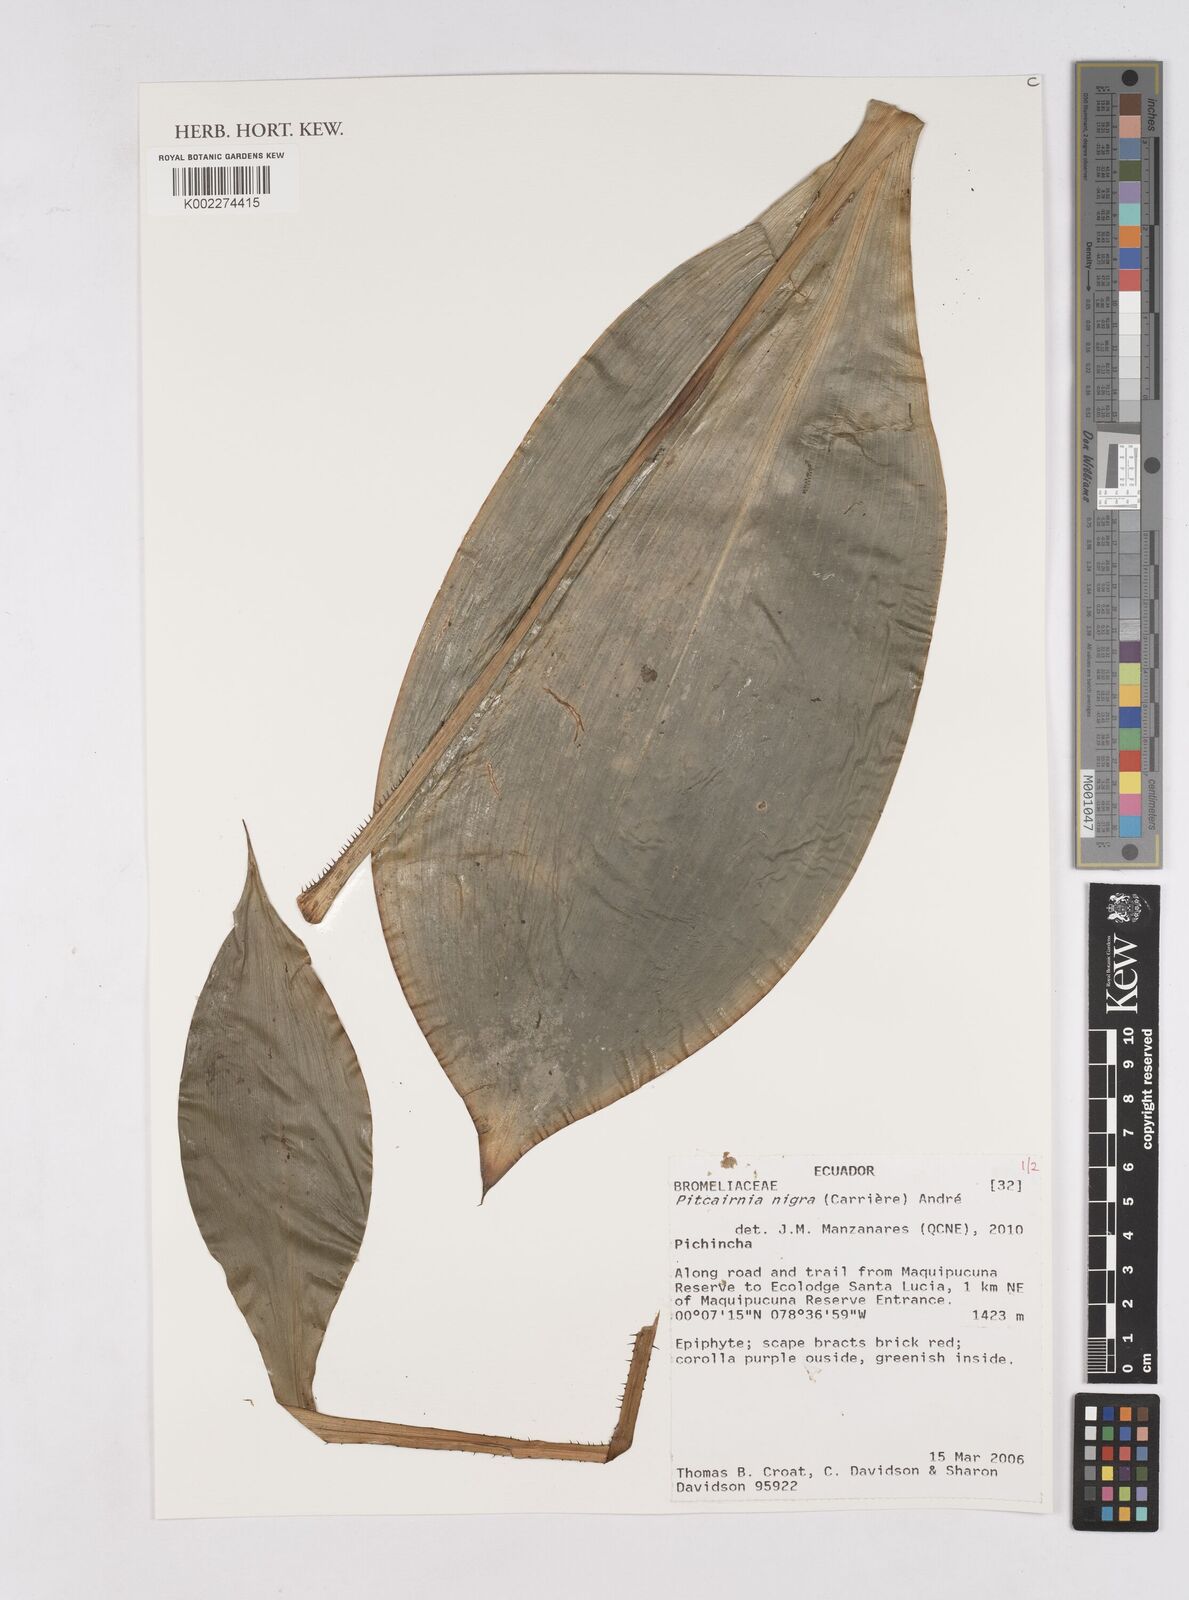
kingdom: Plantae
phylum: Tracheophyta
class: Liliopsida
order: Poales
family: Bromeliaceae
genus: Pitcairnia
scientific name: Pitcairnia nigra
